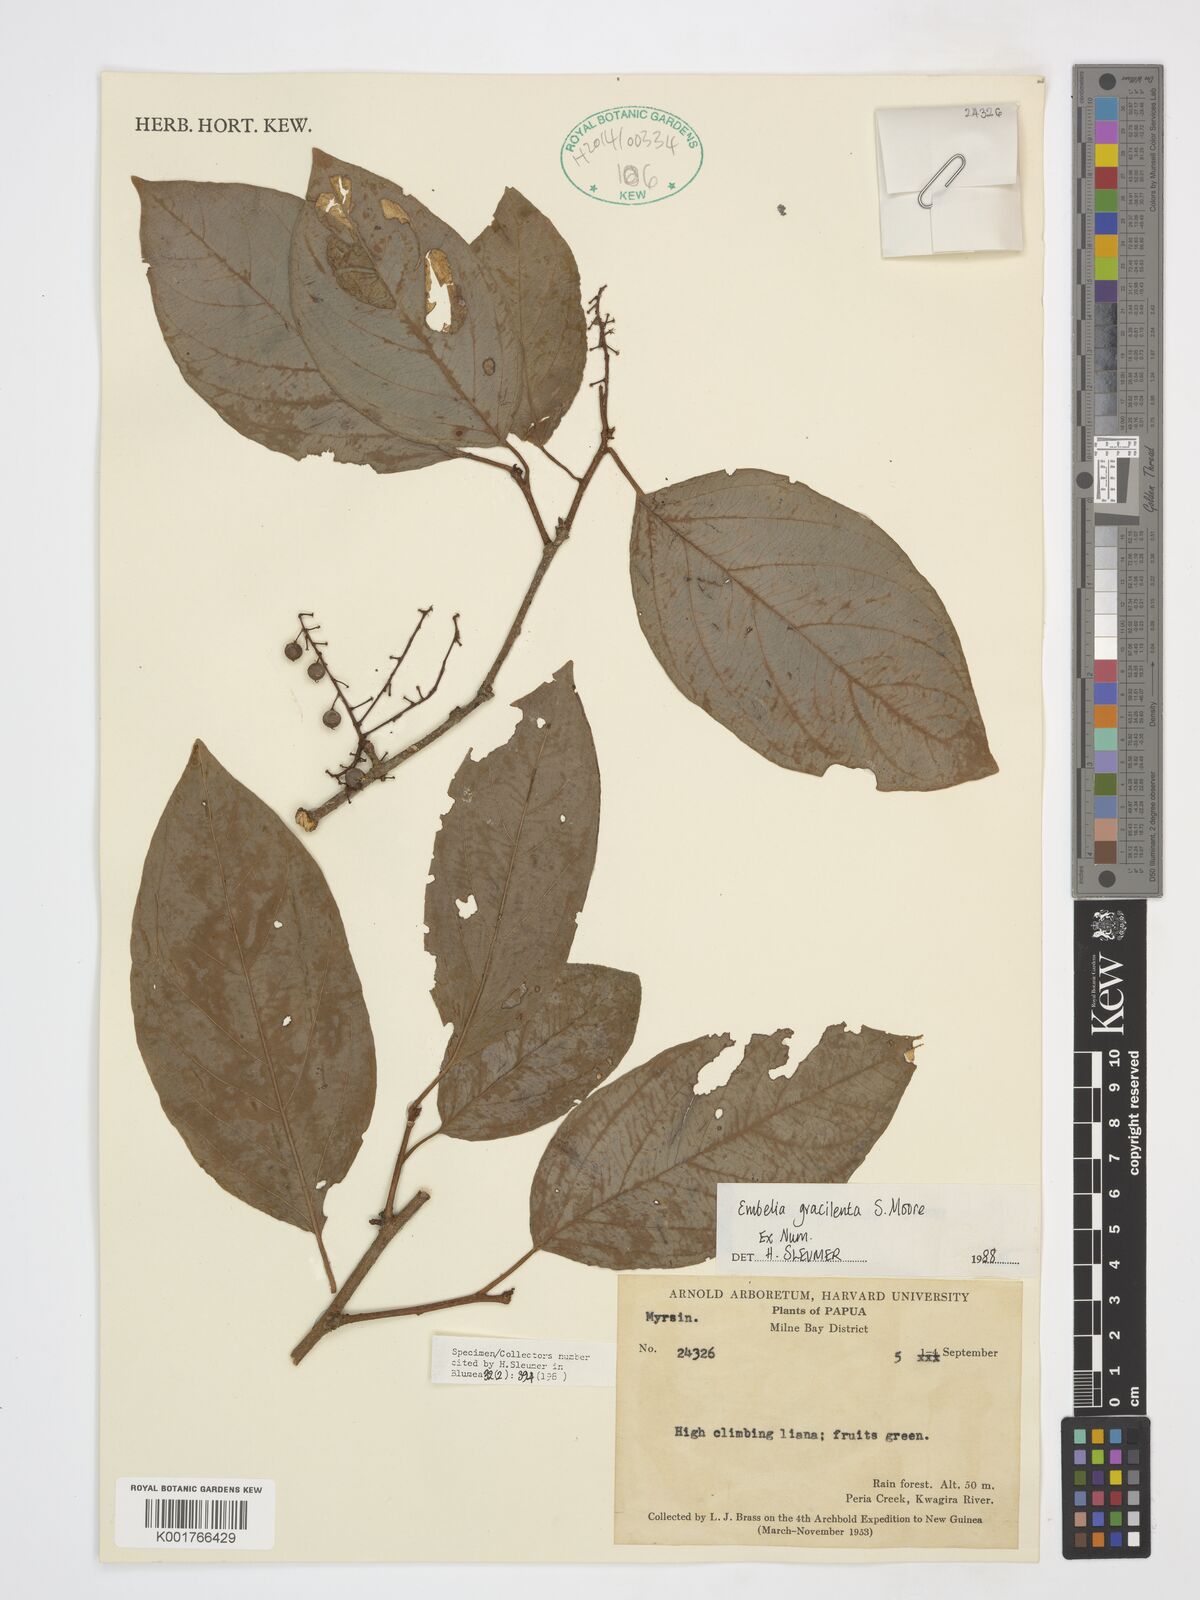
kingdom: Plantae
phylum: Tracheophyta
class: Magnoliopsida
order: Ericales
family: Primulaceae
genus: Embelia
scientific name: Embelia gracilenta
